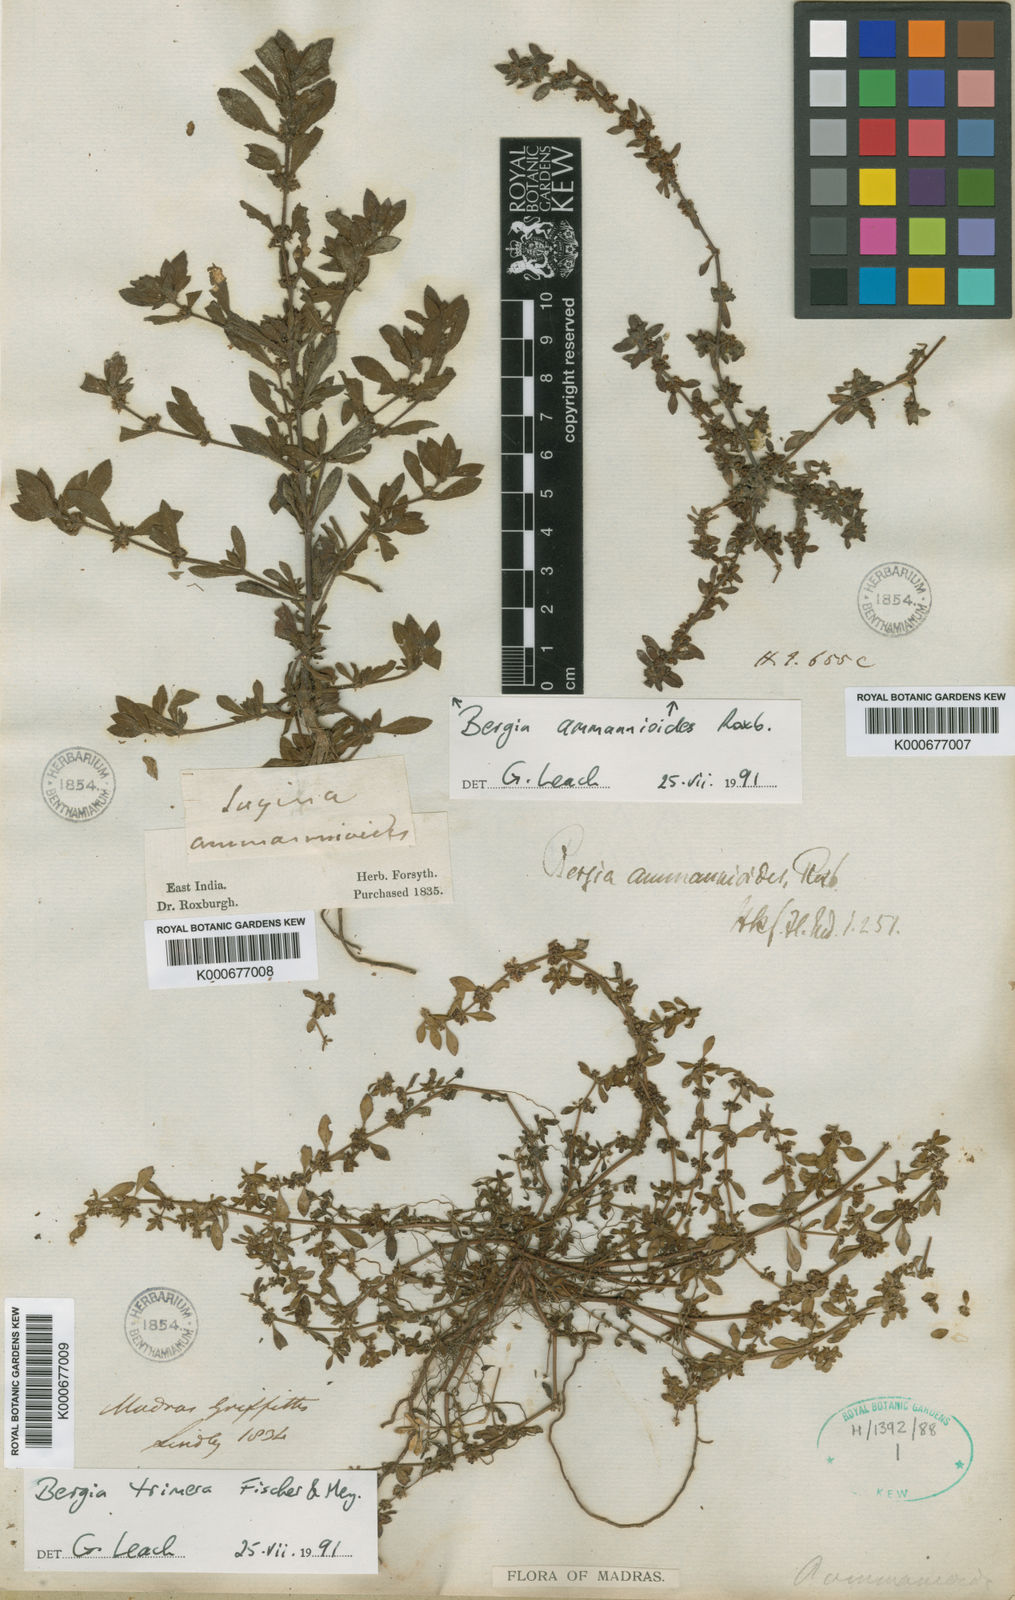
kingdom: Plantae
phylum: Tracheophyta
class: Magnoliopsida
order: Malpighiales
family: Elatinaceae
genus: Bergia
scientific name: Bergia trimera
